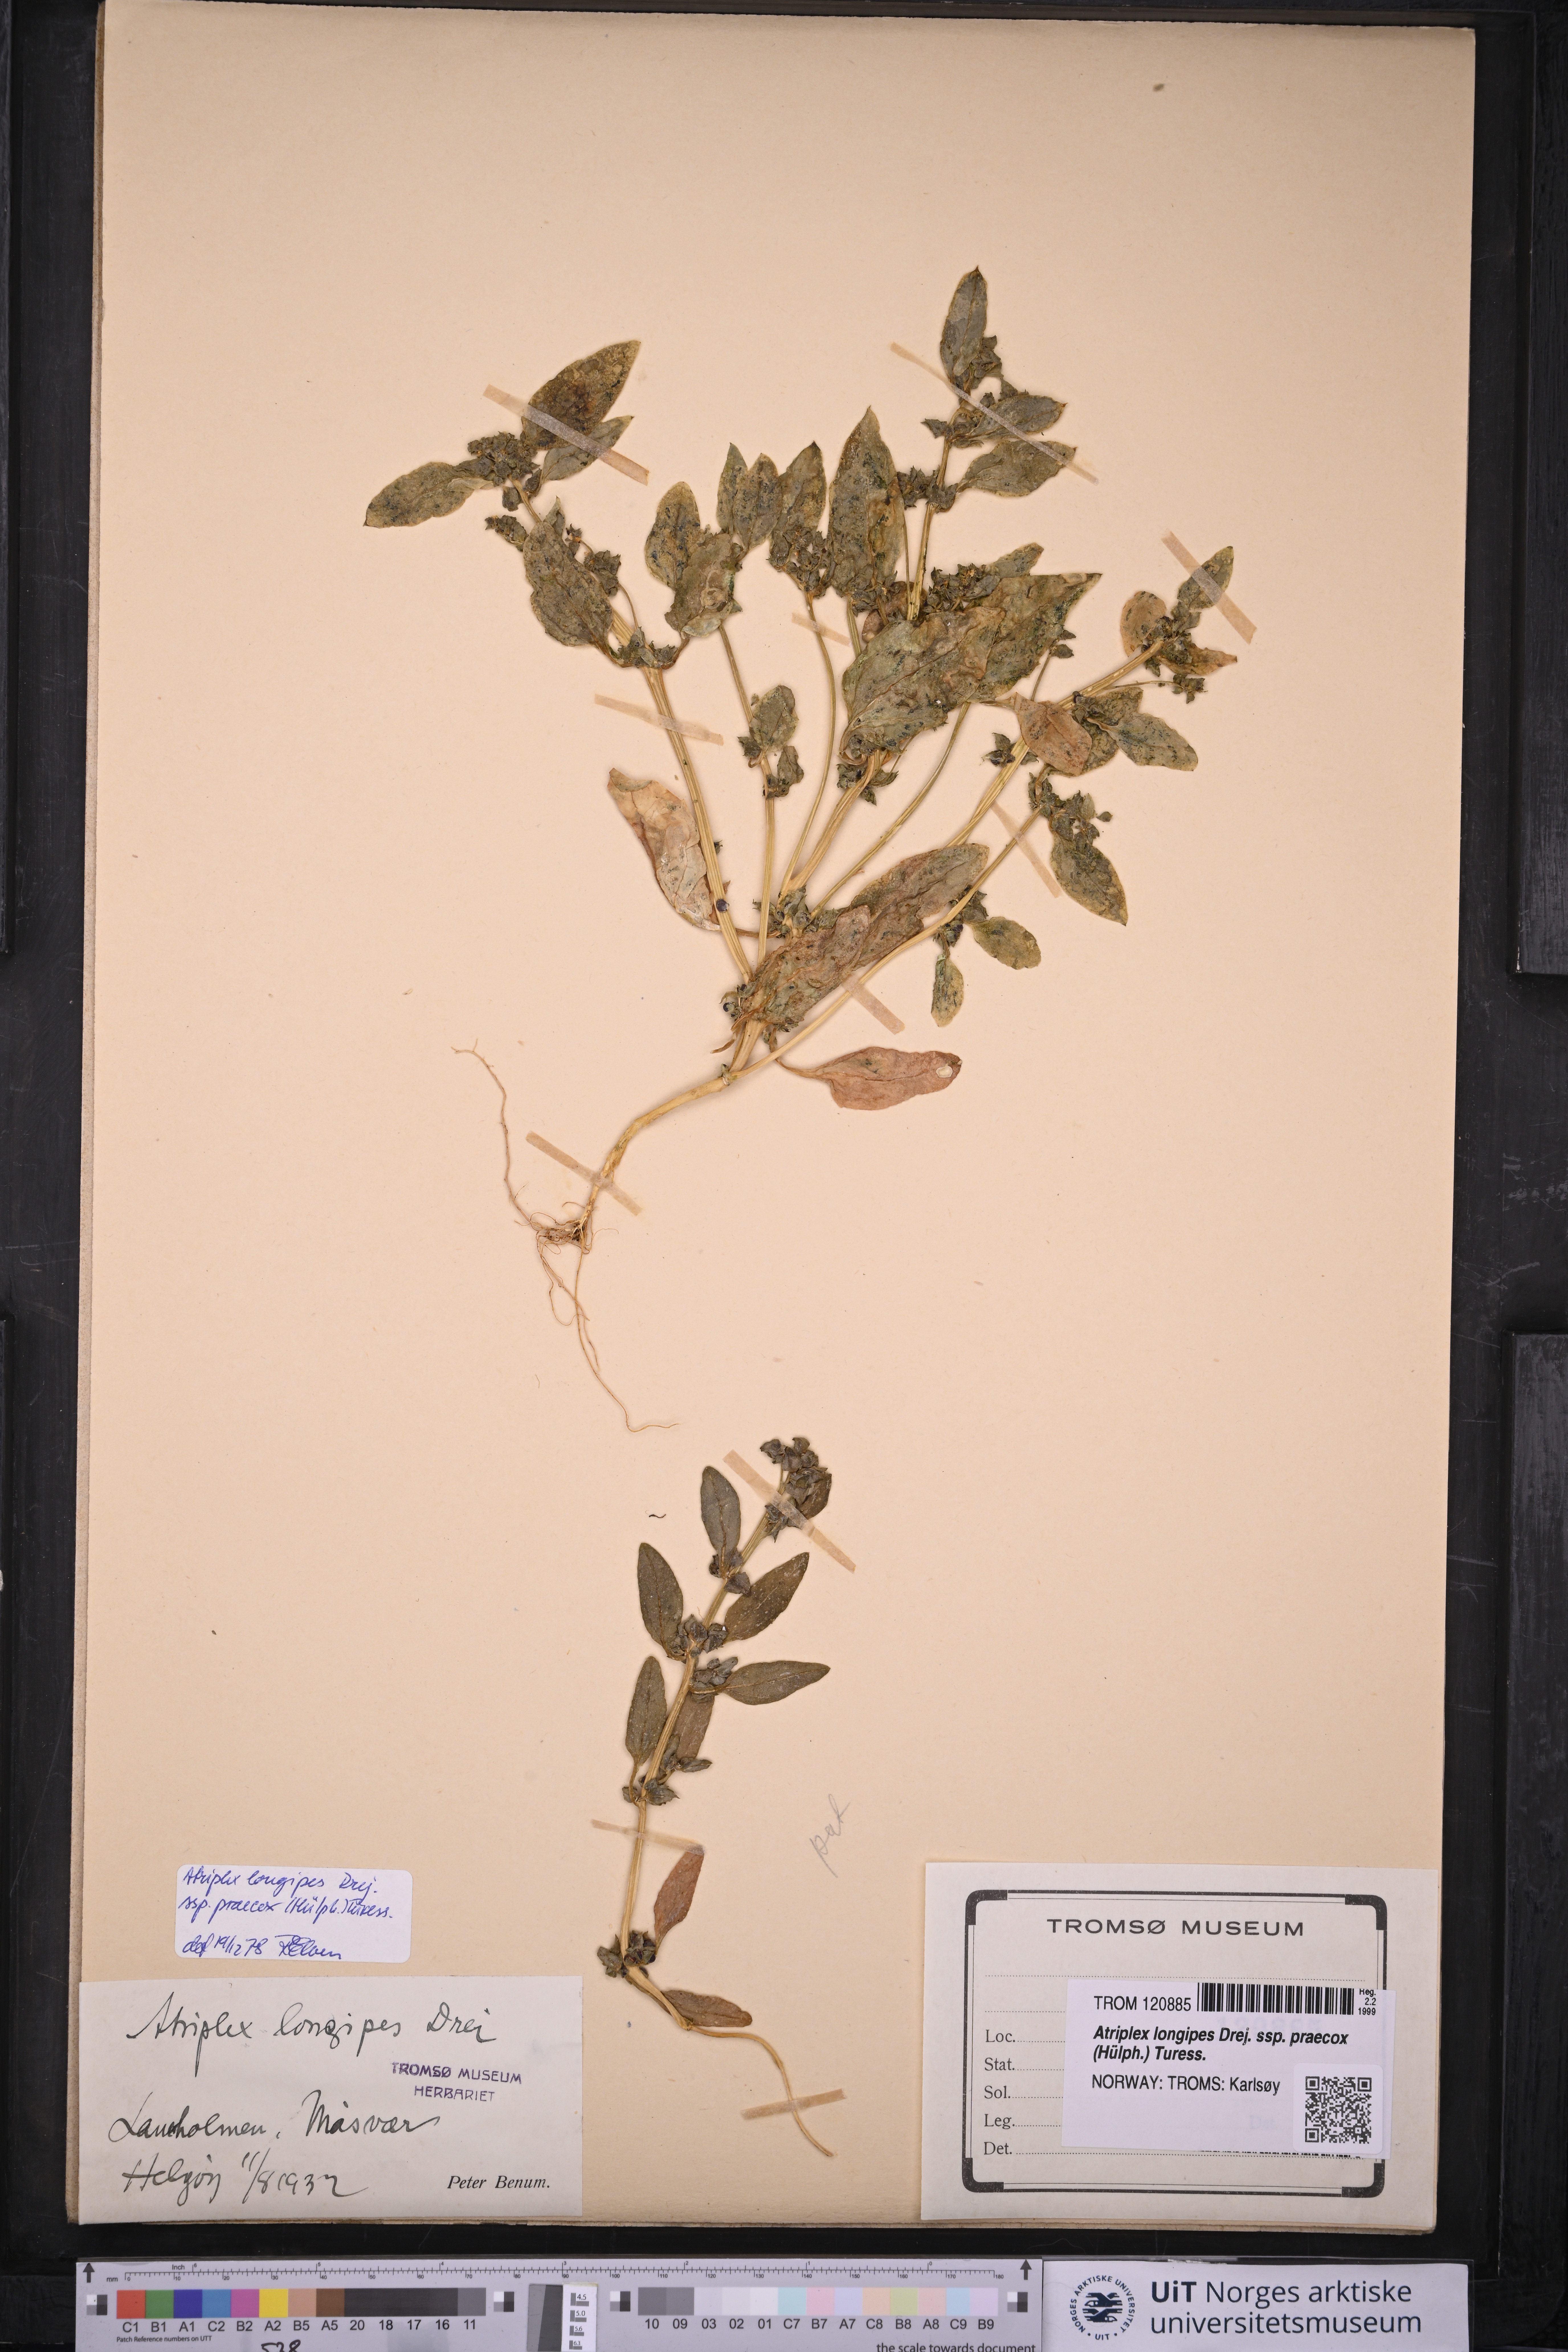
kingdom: Plantae
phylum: Tracheophyta
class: Magnoliopsida
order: Caryophyllales
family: Amaranthaceae
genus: Atriplex
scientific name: Atriplex praecox
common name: Early orache
